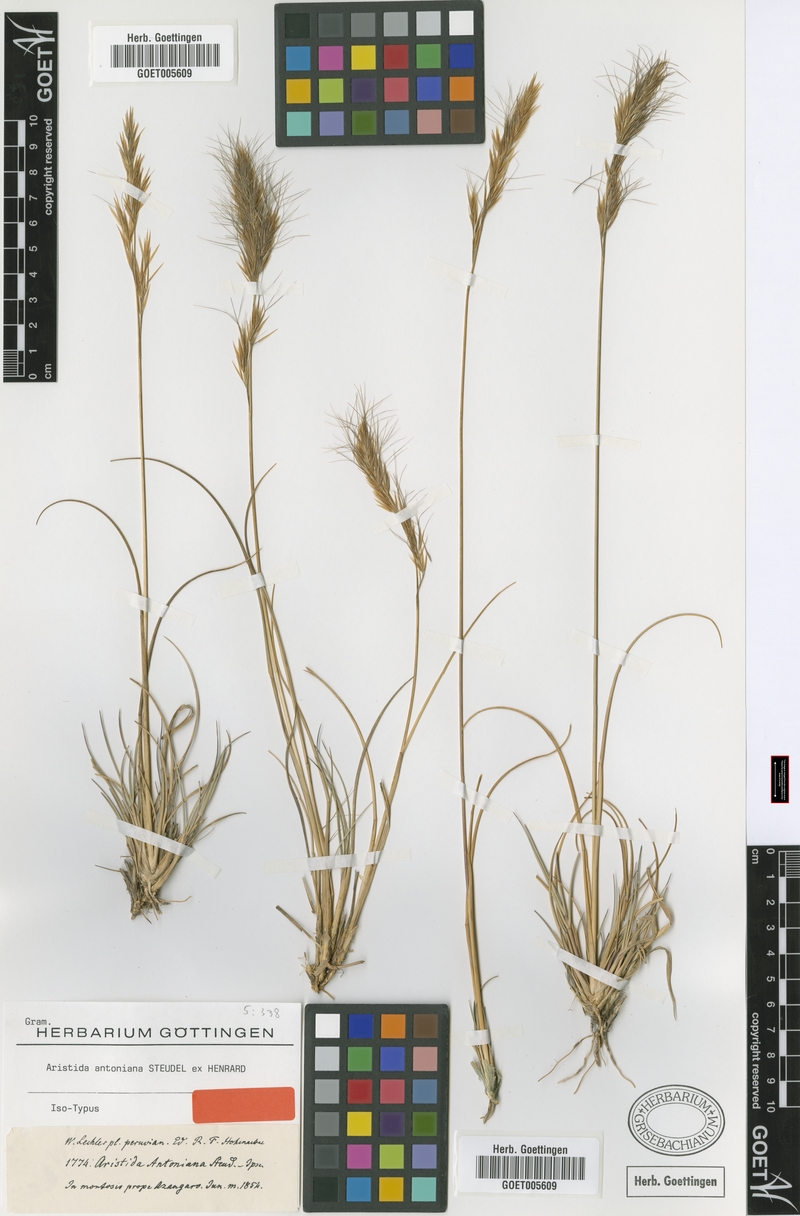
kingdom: Plantae
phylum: Tracheophyta
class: Liliopsida
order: Poales
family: Poaceae
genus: Aristida
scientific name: Aristida antoniana
